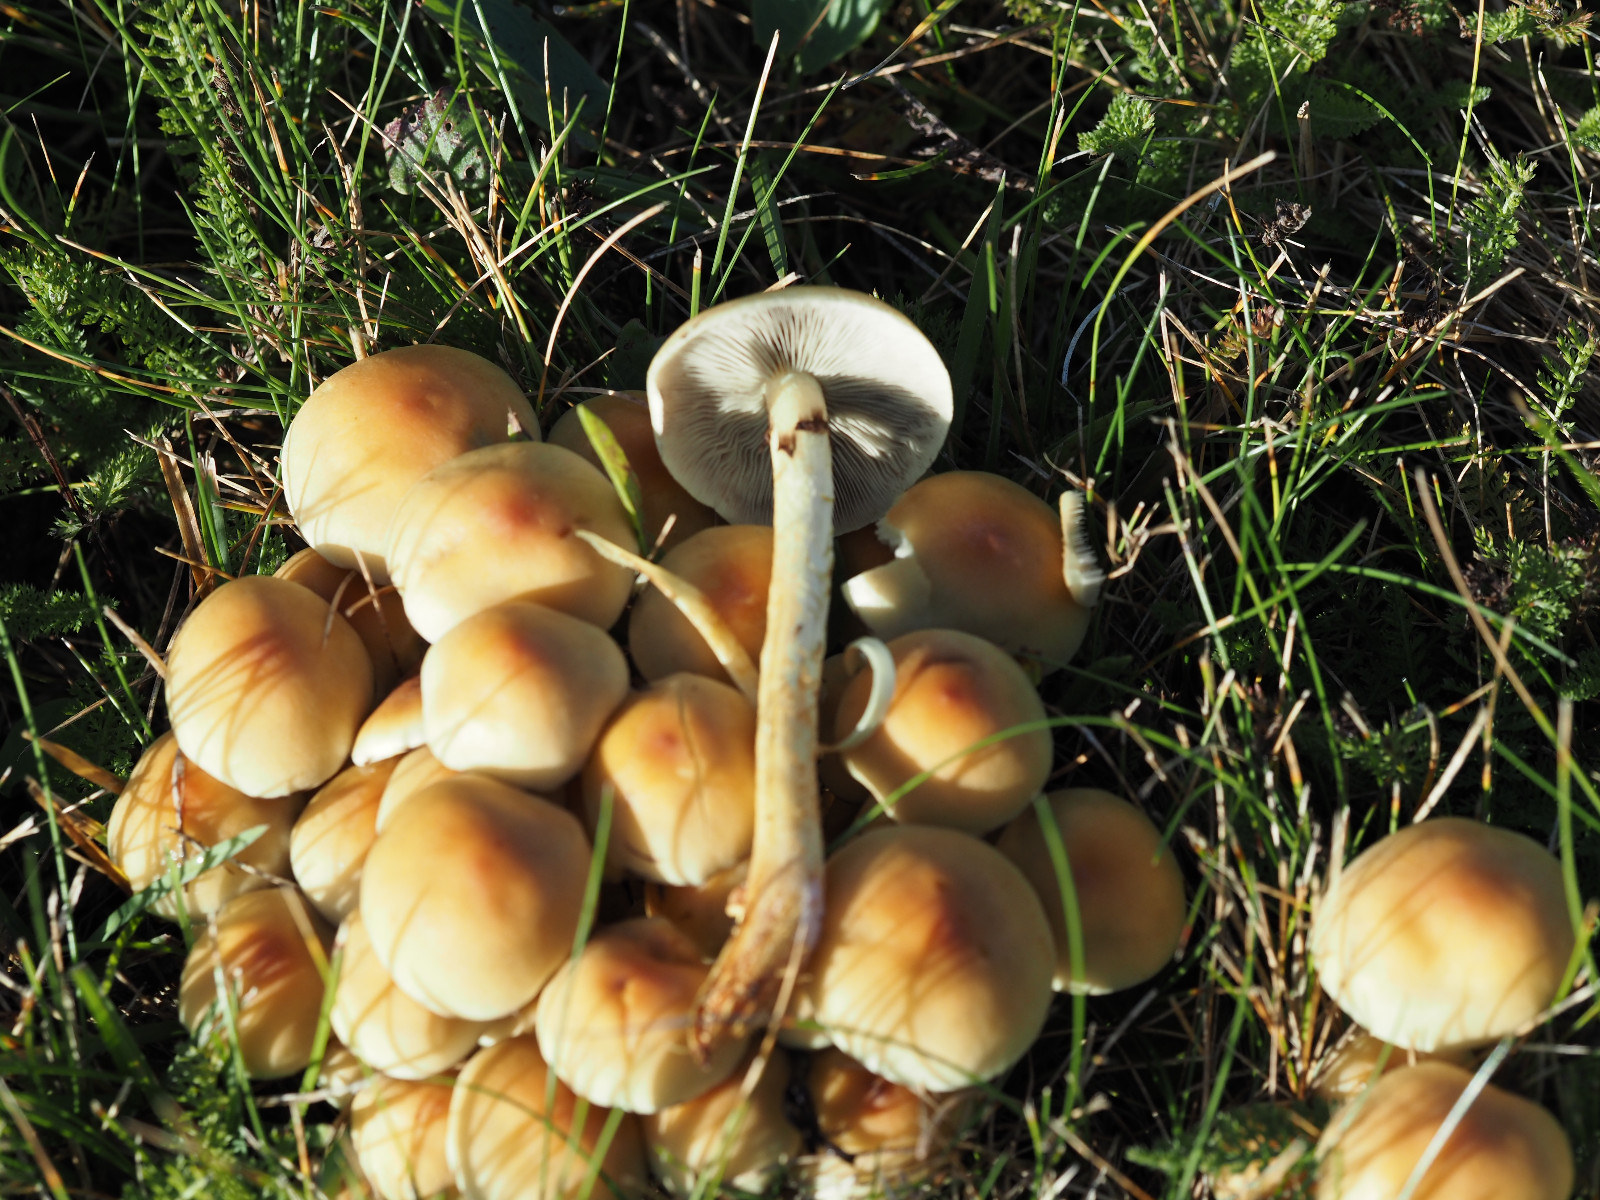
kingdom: Fungi
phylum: Basidiomycota
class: Agaricomycetes
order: Agaricales
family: Strophariaceae
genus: Hypholoma
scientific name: Hypholoma fasciculare
